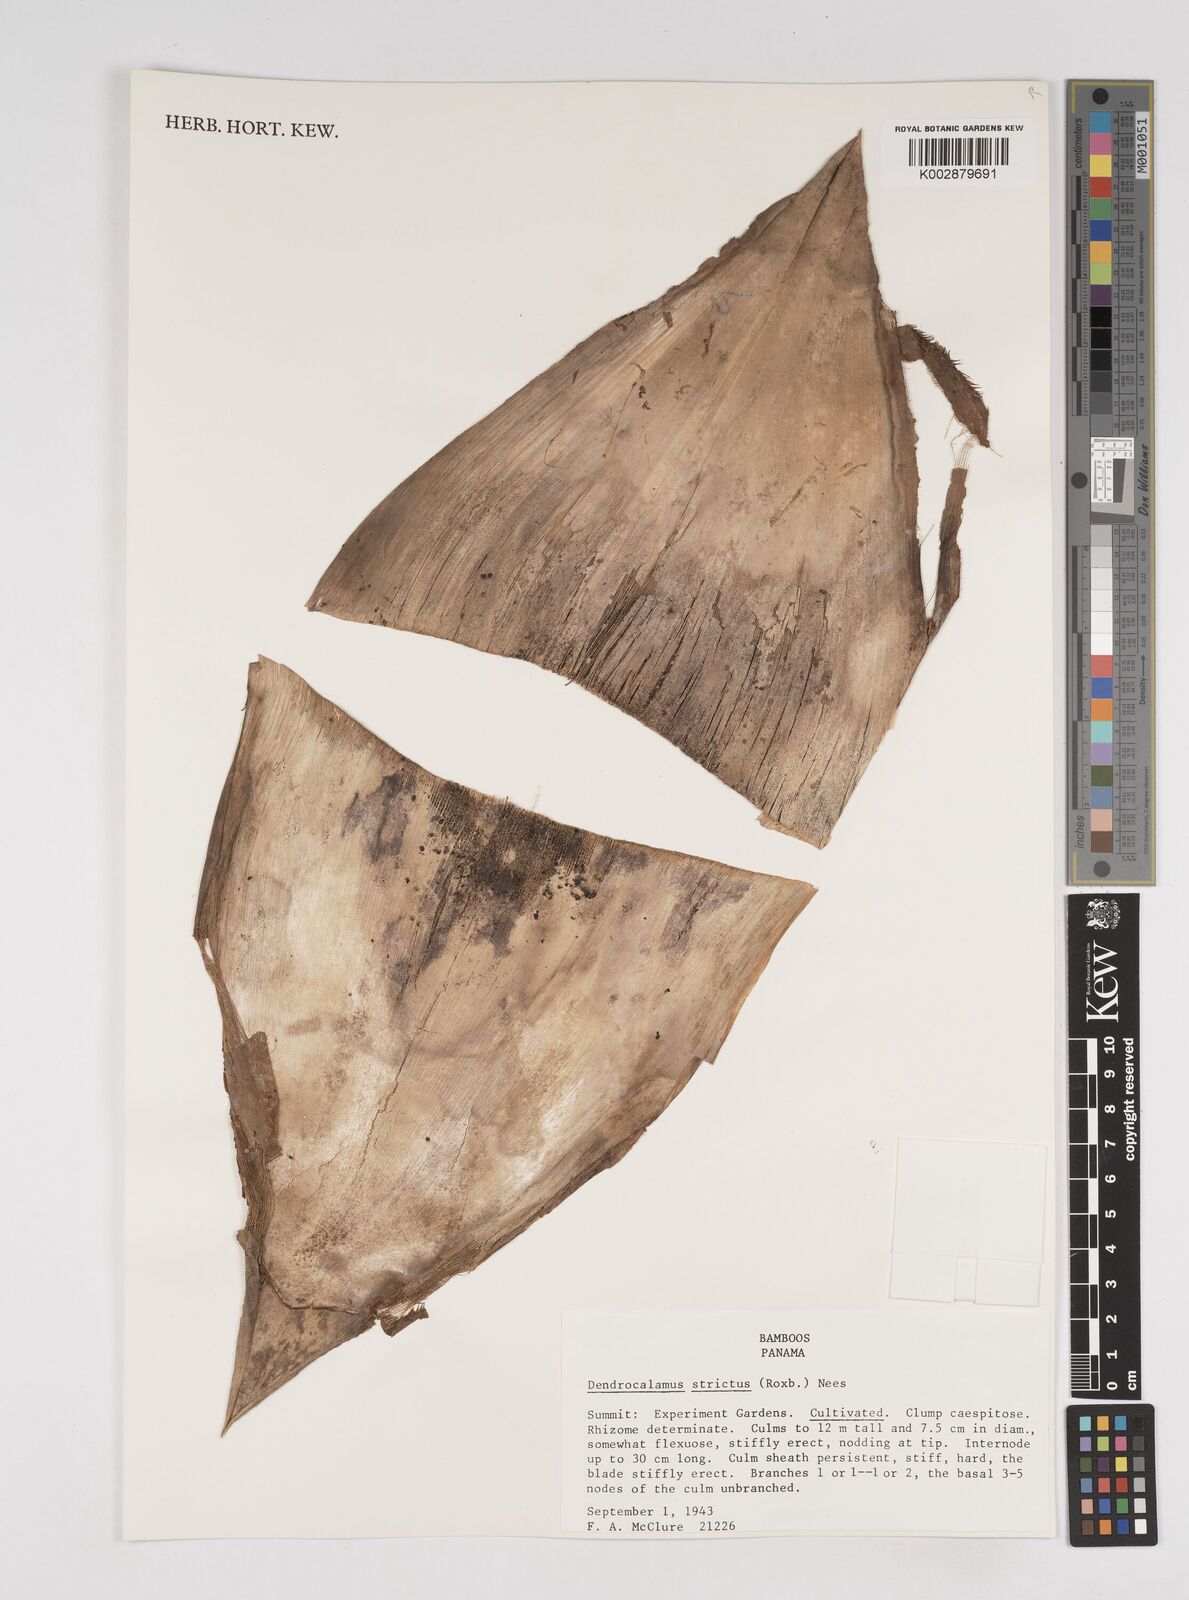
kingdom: Plantae
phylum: Tracheophyta
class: Liliopsida
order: Poales
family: Poaceae
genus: Dendrocalamus
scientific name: Dendrocalamus strictus
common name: Male bamboo
